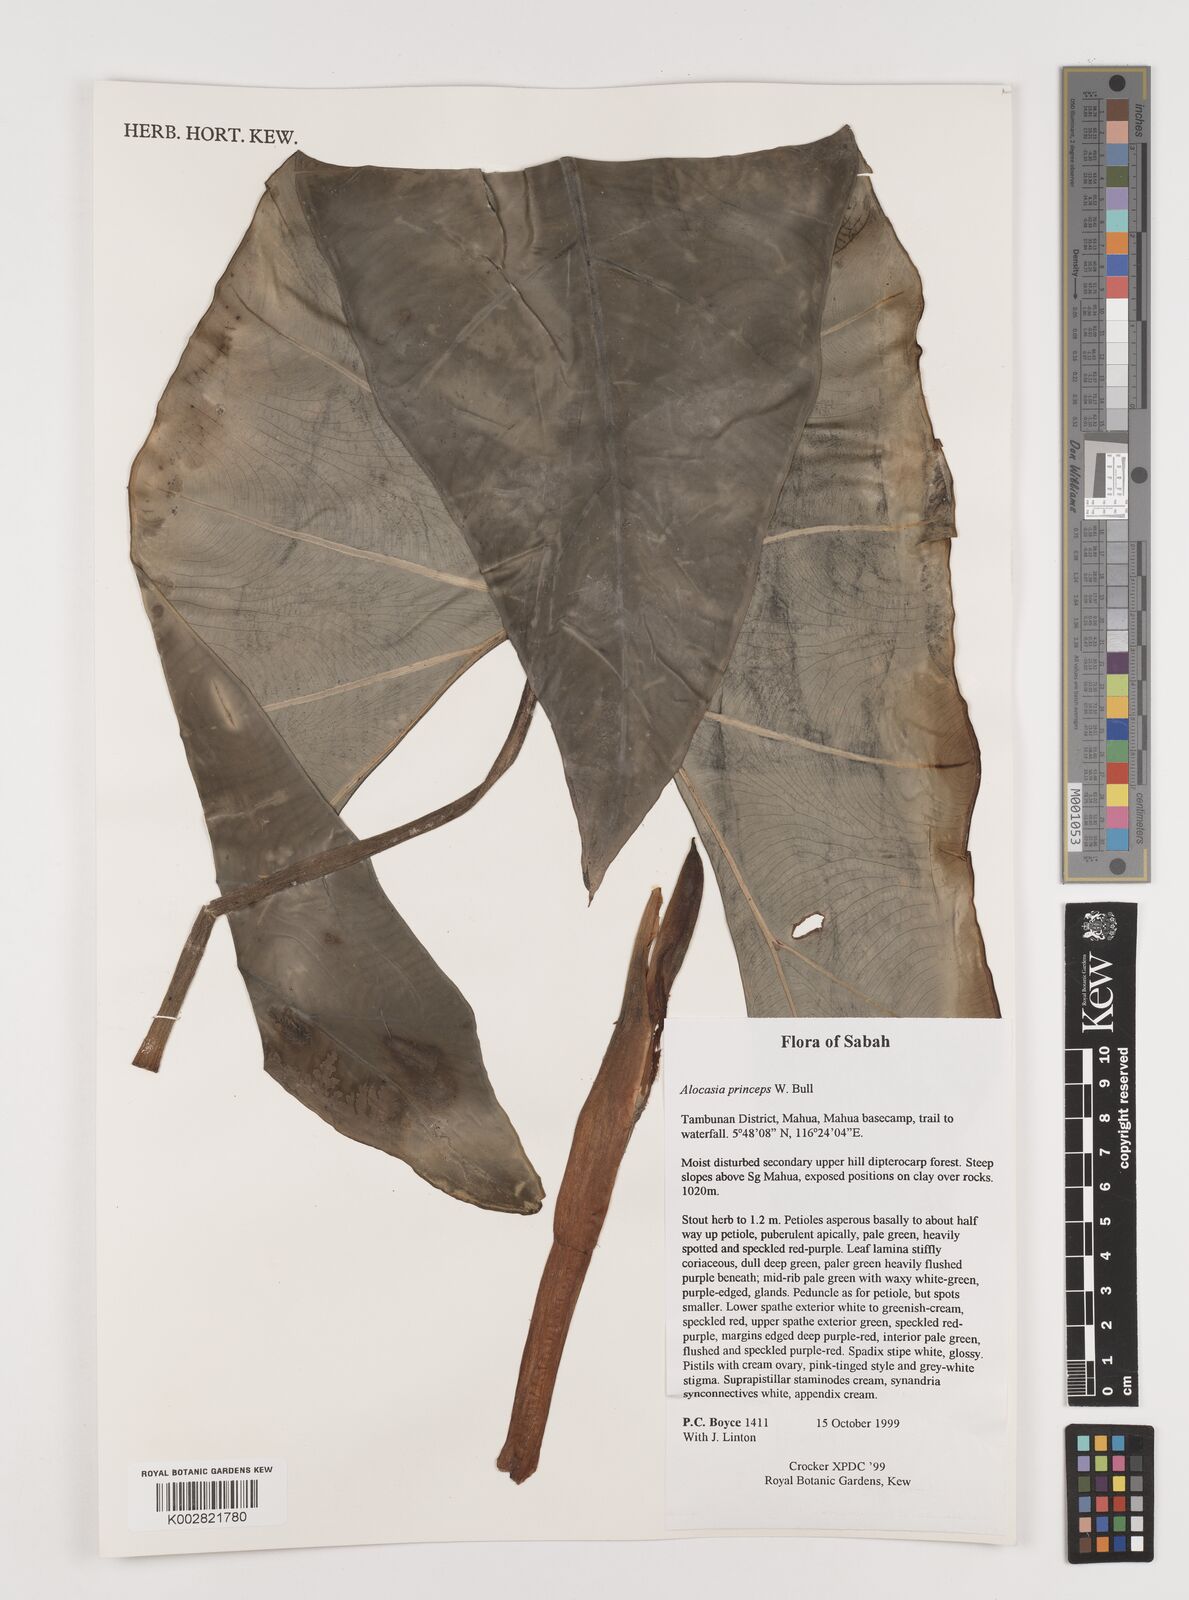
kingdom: Plantae
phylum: Tracheophyta
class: Liliopsida
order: Alismatales
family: Araceae
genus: Alocasia
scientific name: Alocasia
